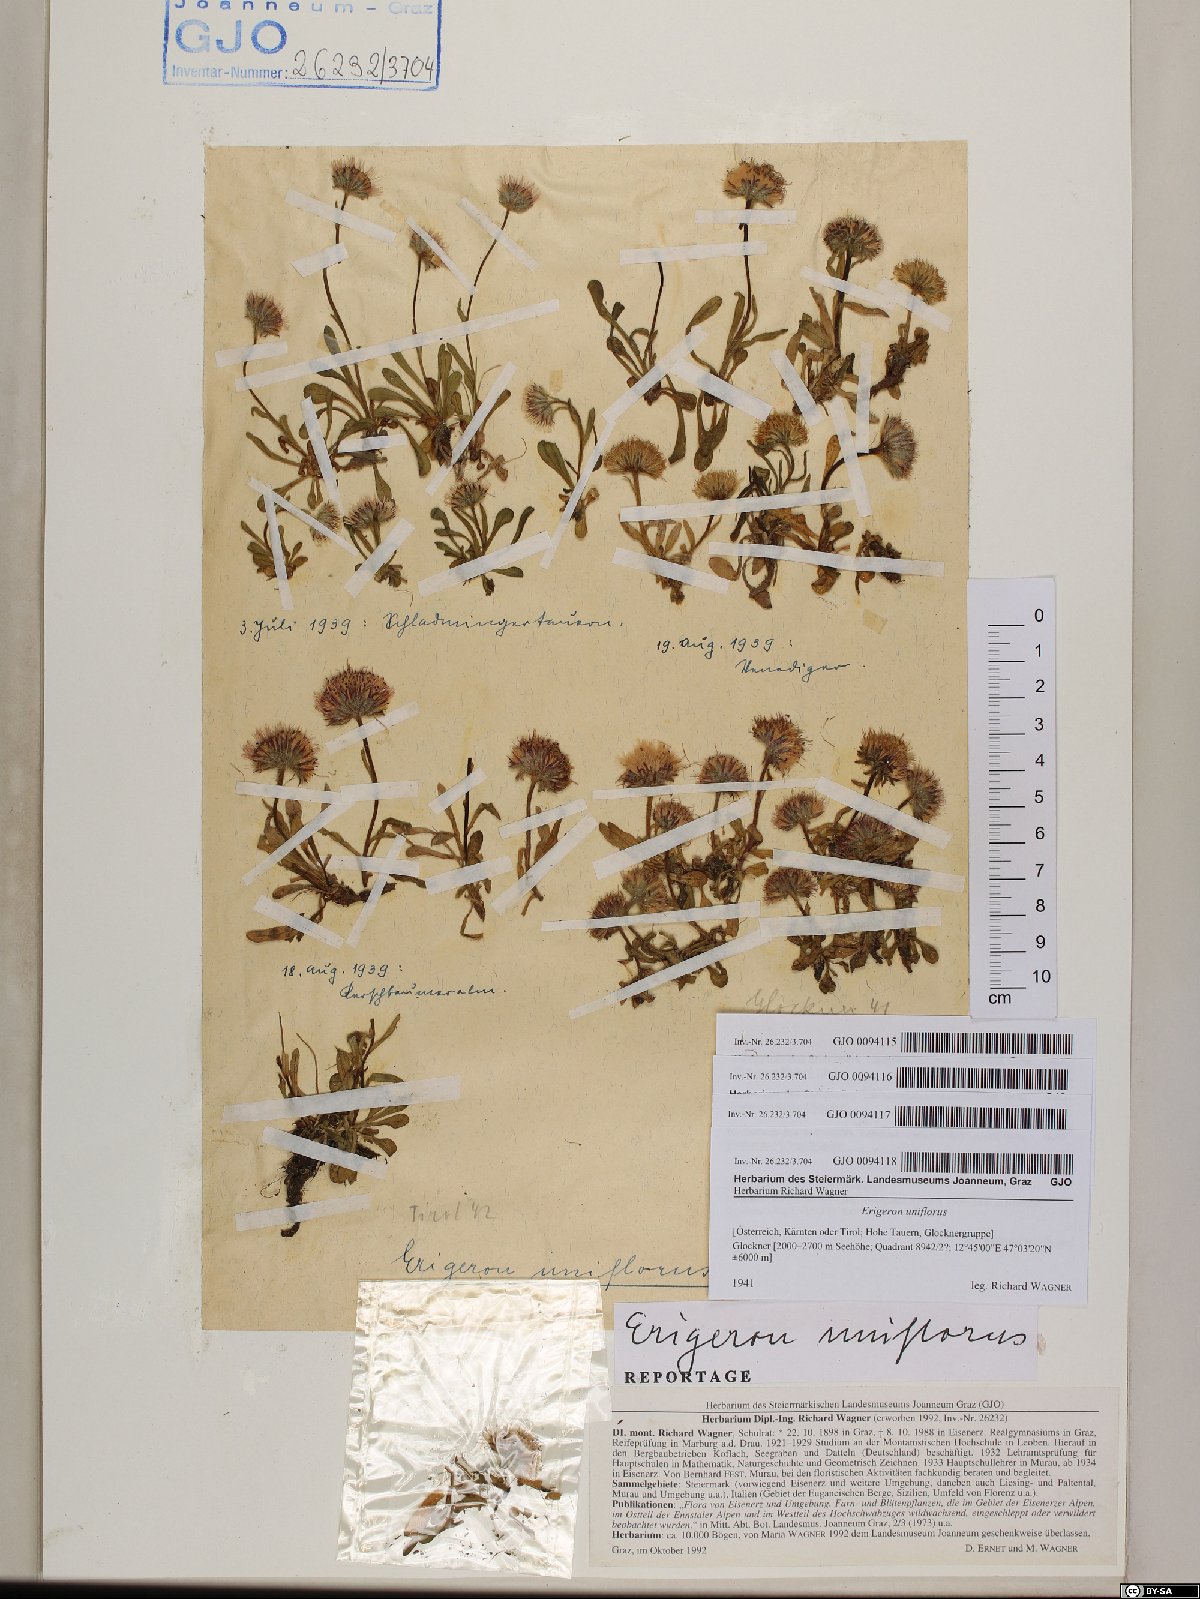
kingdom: Plantae
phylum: Tracheophyta
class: Magnoliopsida
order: Asterales
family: Asteraceae
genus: Erigeron
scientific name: Erigeron uniflorus
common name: Northern daisy
